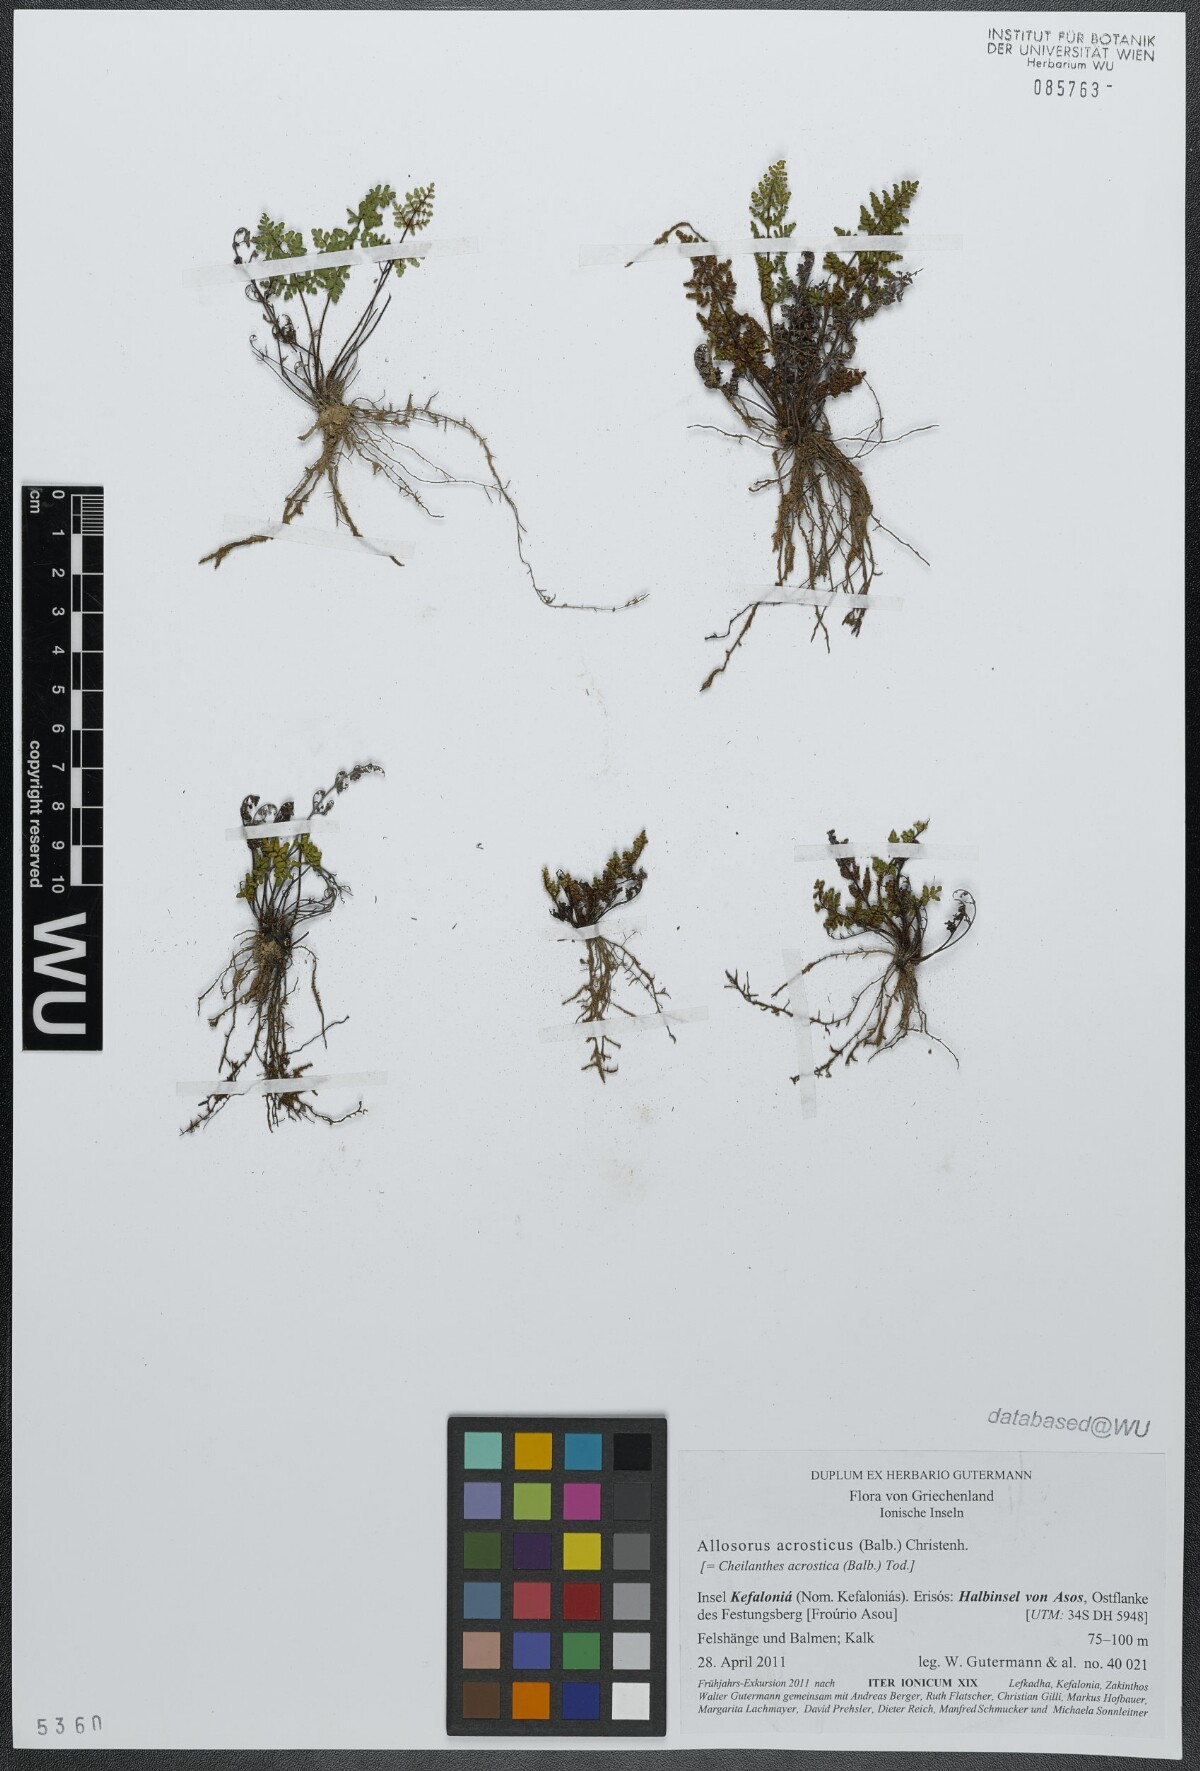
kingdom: Plantae
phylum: Tracheophyta
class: Polypodiopsida
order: Polypodiales
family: Pteridaceae
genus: Oeosporangium
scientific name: Oeosporangium pteridioides
